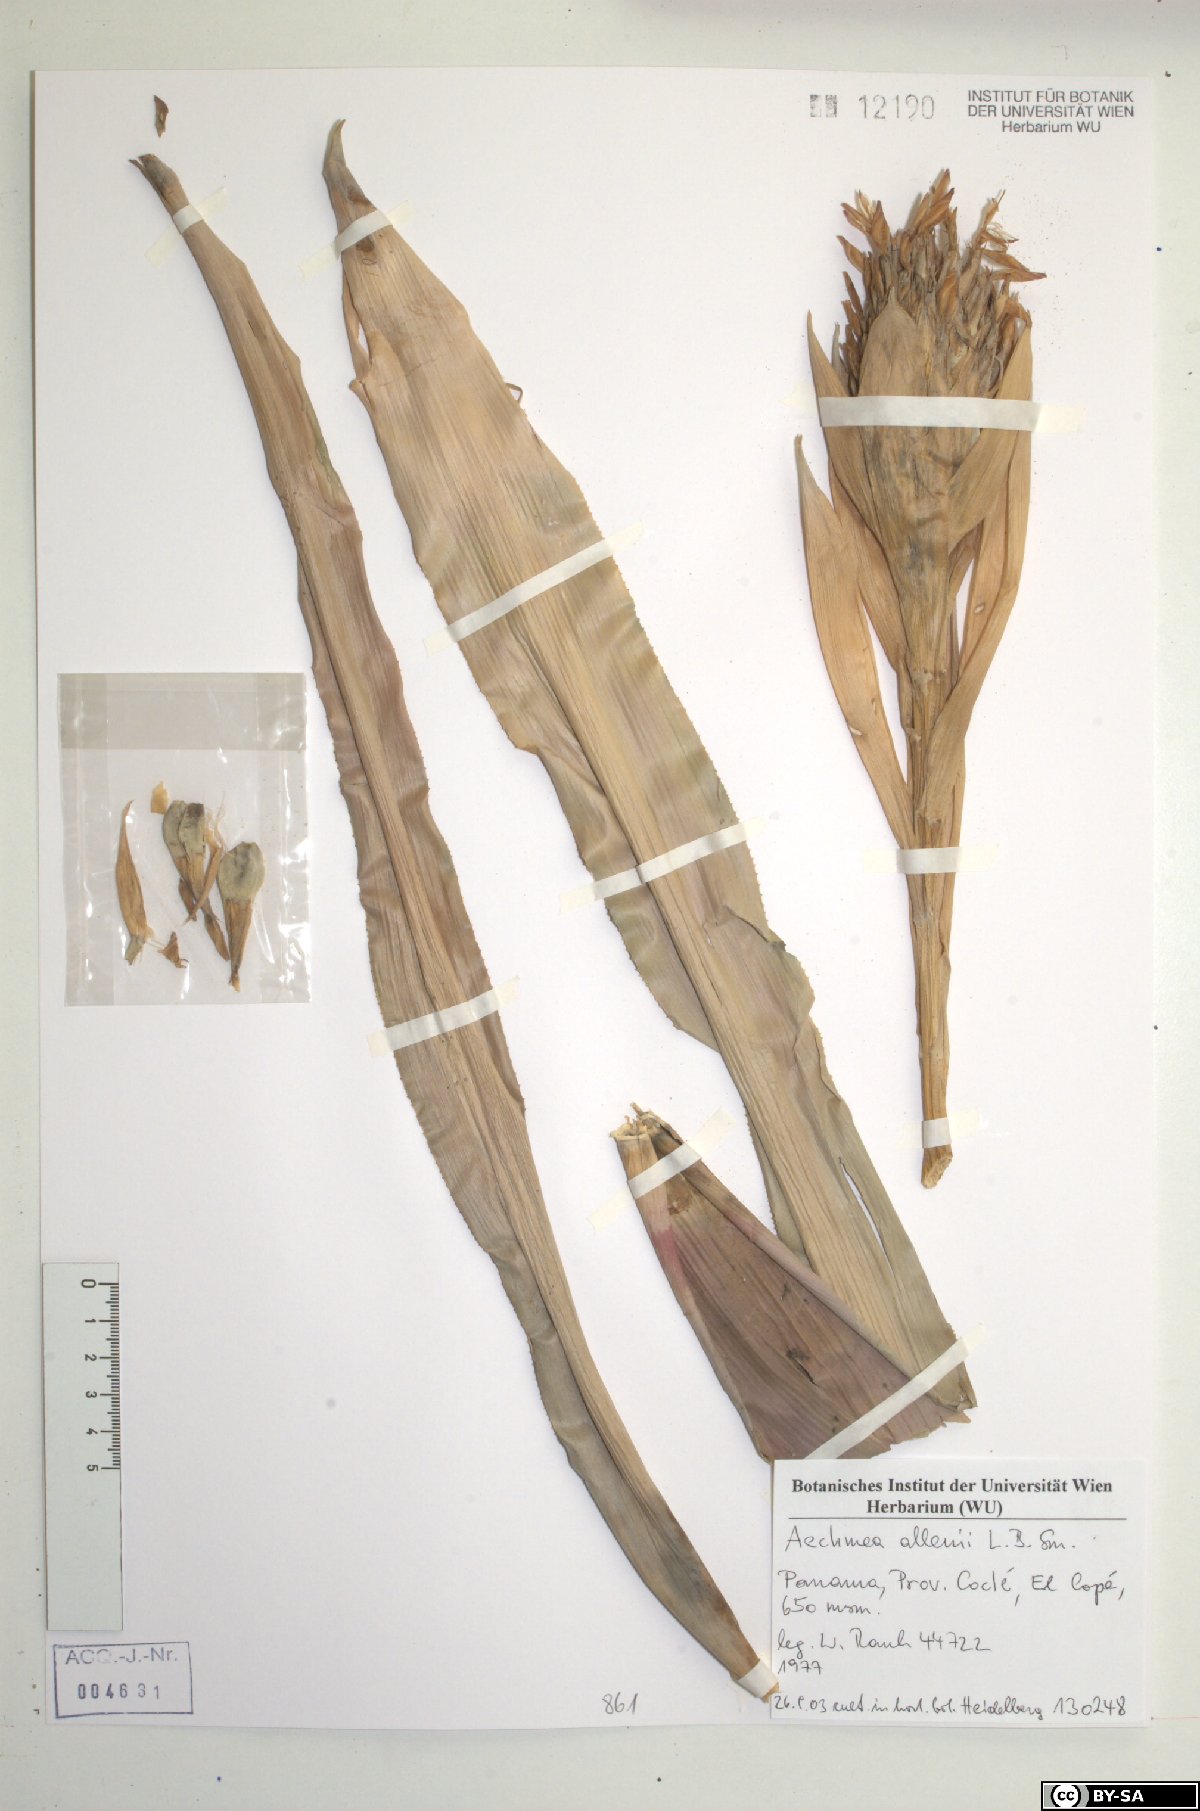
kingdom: Plantae
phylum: Tracheophyta
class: Liliopsida
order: Poales
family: Bromeliaceae
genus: Aechmea
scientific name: Aechmea
